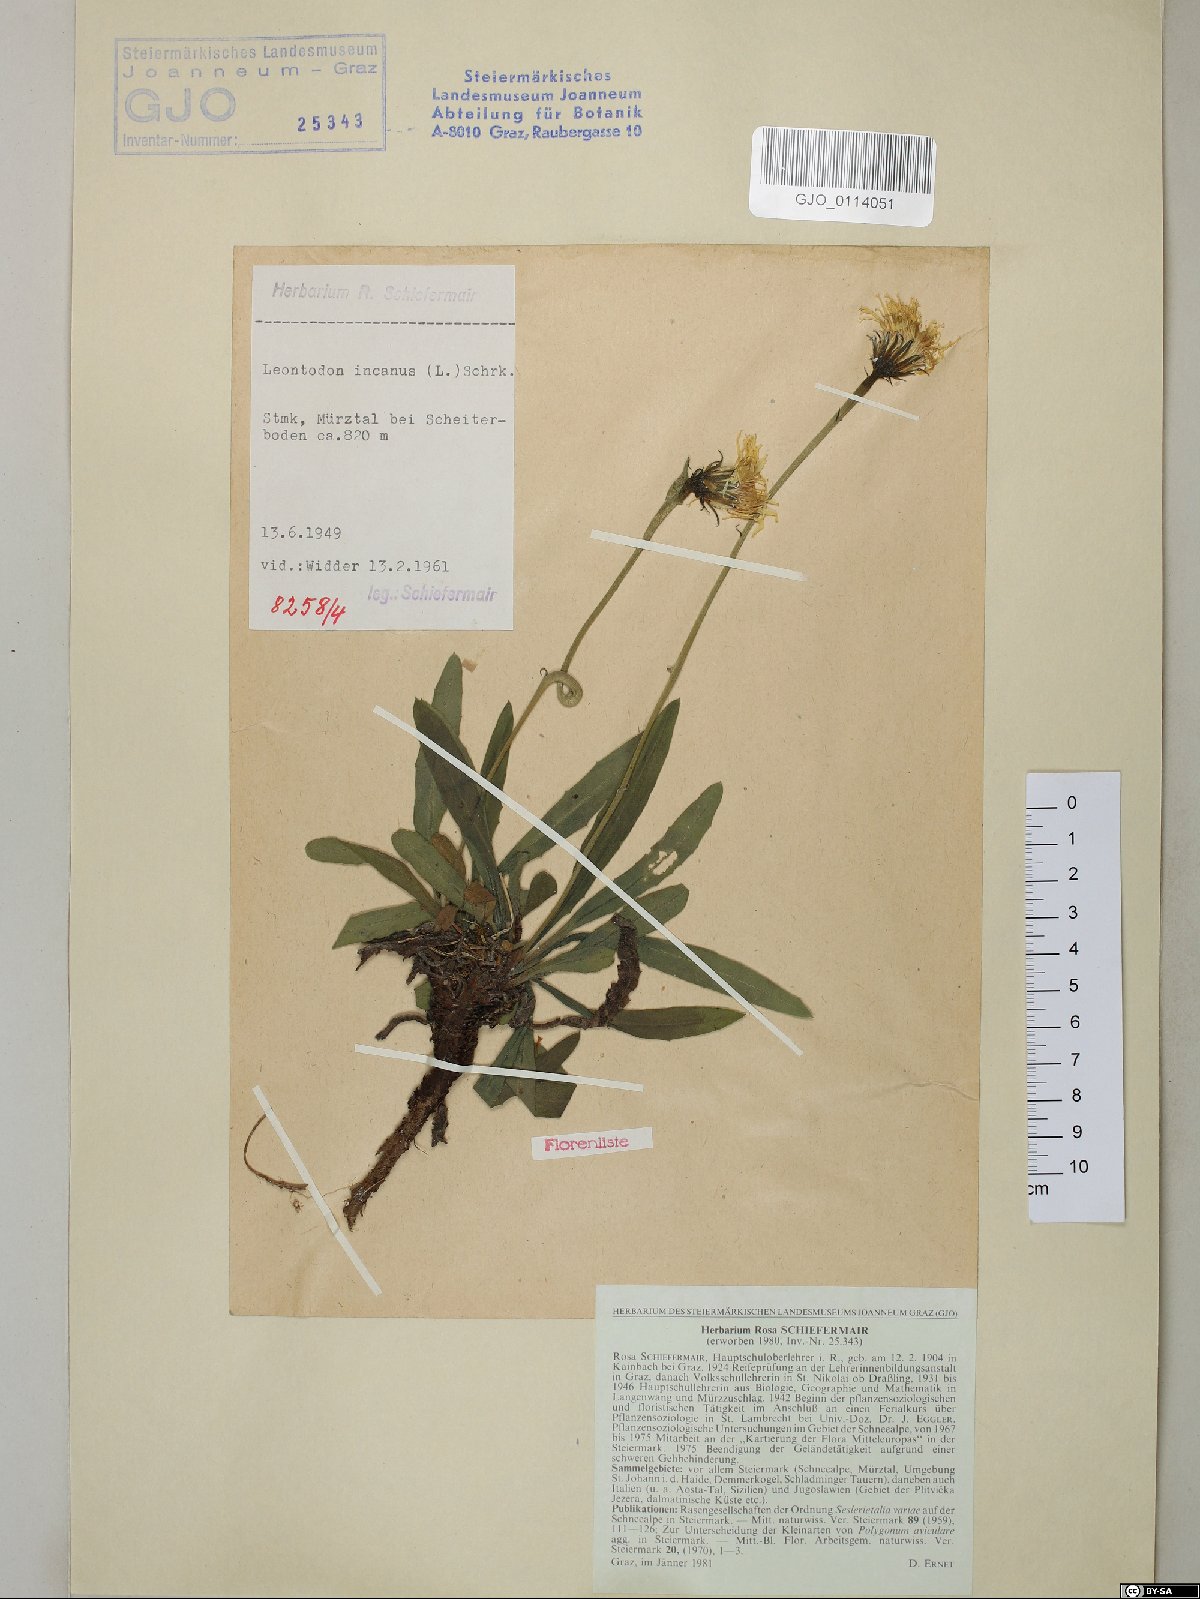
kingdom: Plantae
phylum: Tracheophyta
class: Magnoliopsida
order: Asterales
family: Asteraceae
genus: Leontodon
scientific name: Leontodon incanus
